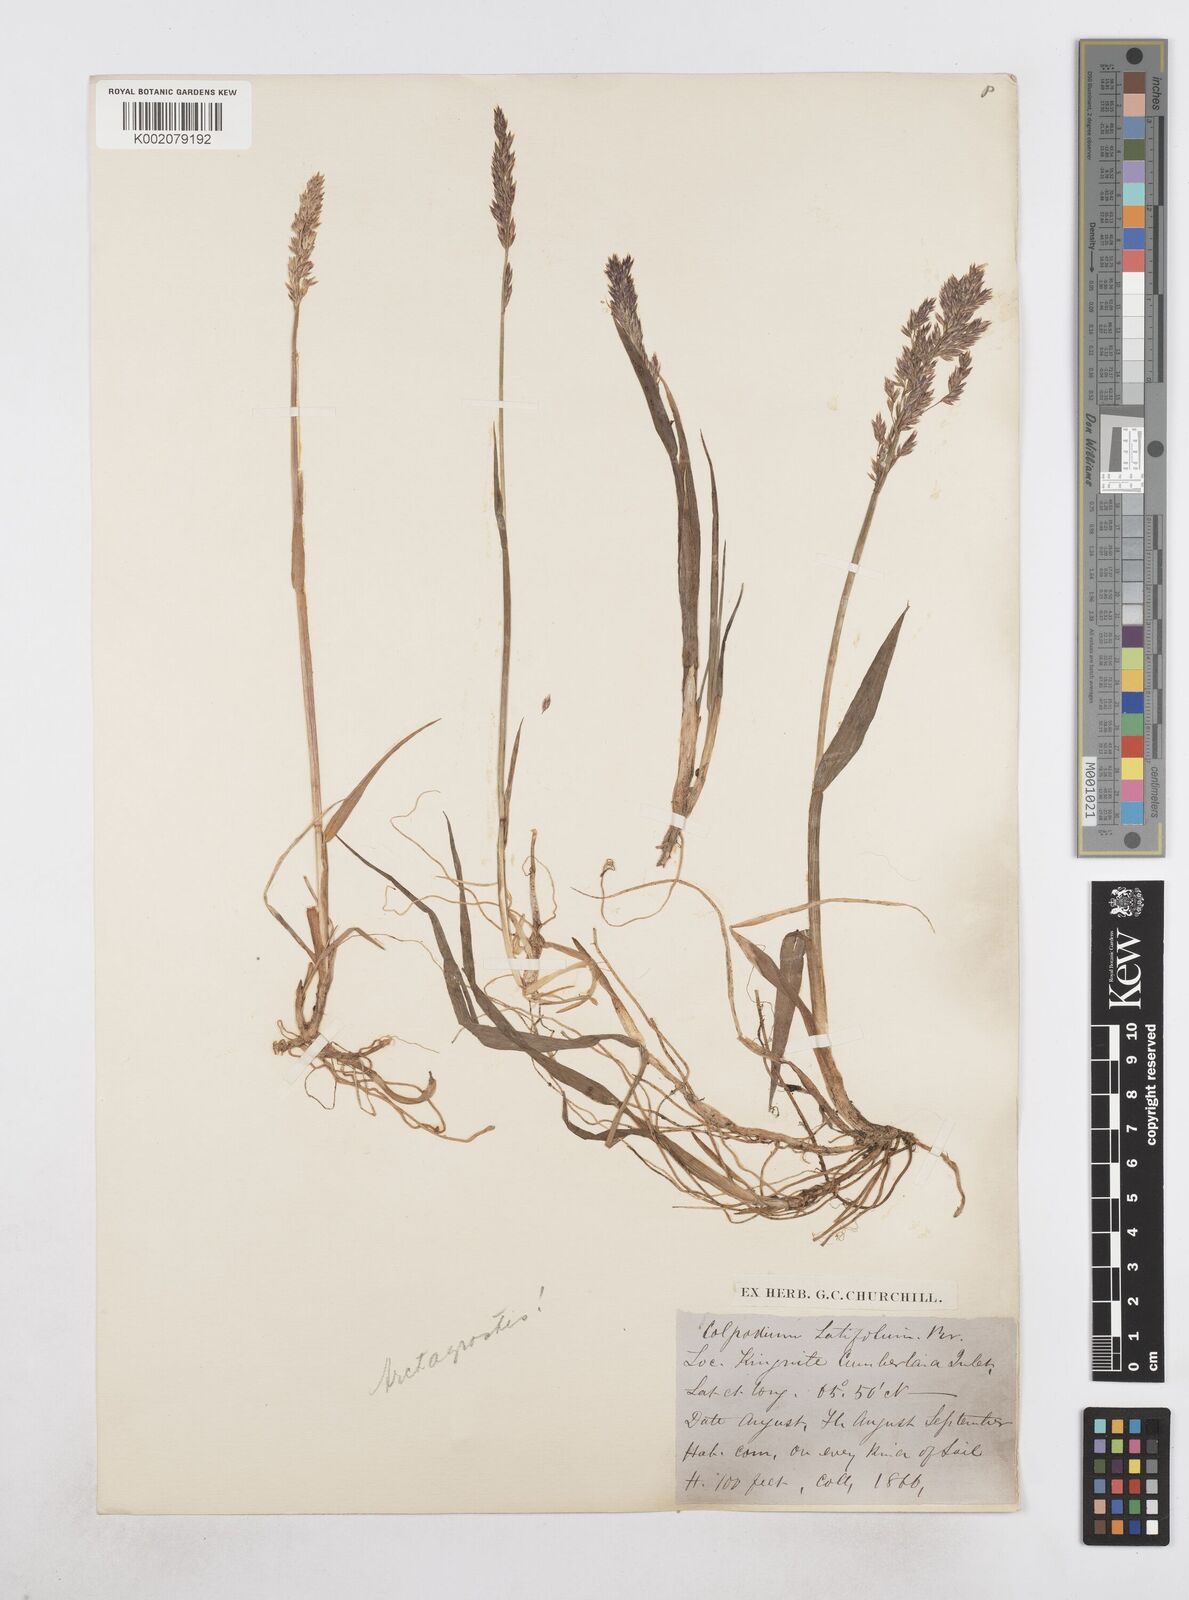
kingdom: Plantae
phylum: Tracheophyta
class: Liliopsida
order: Poales
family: Poaceae
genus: Arctagrostis
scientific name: Arctagrostis latifolia
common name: Arctic grass
